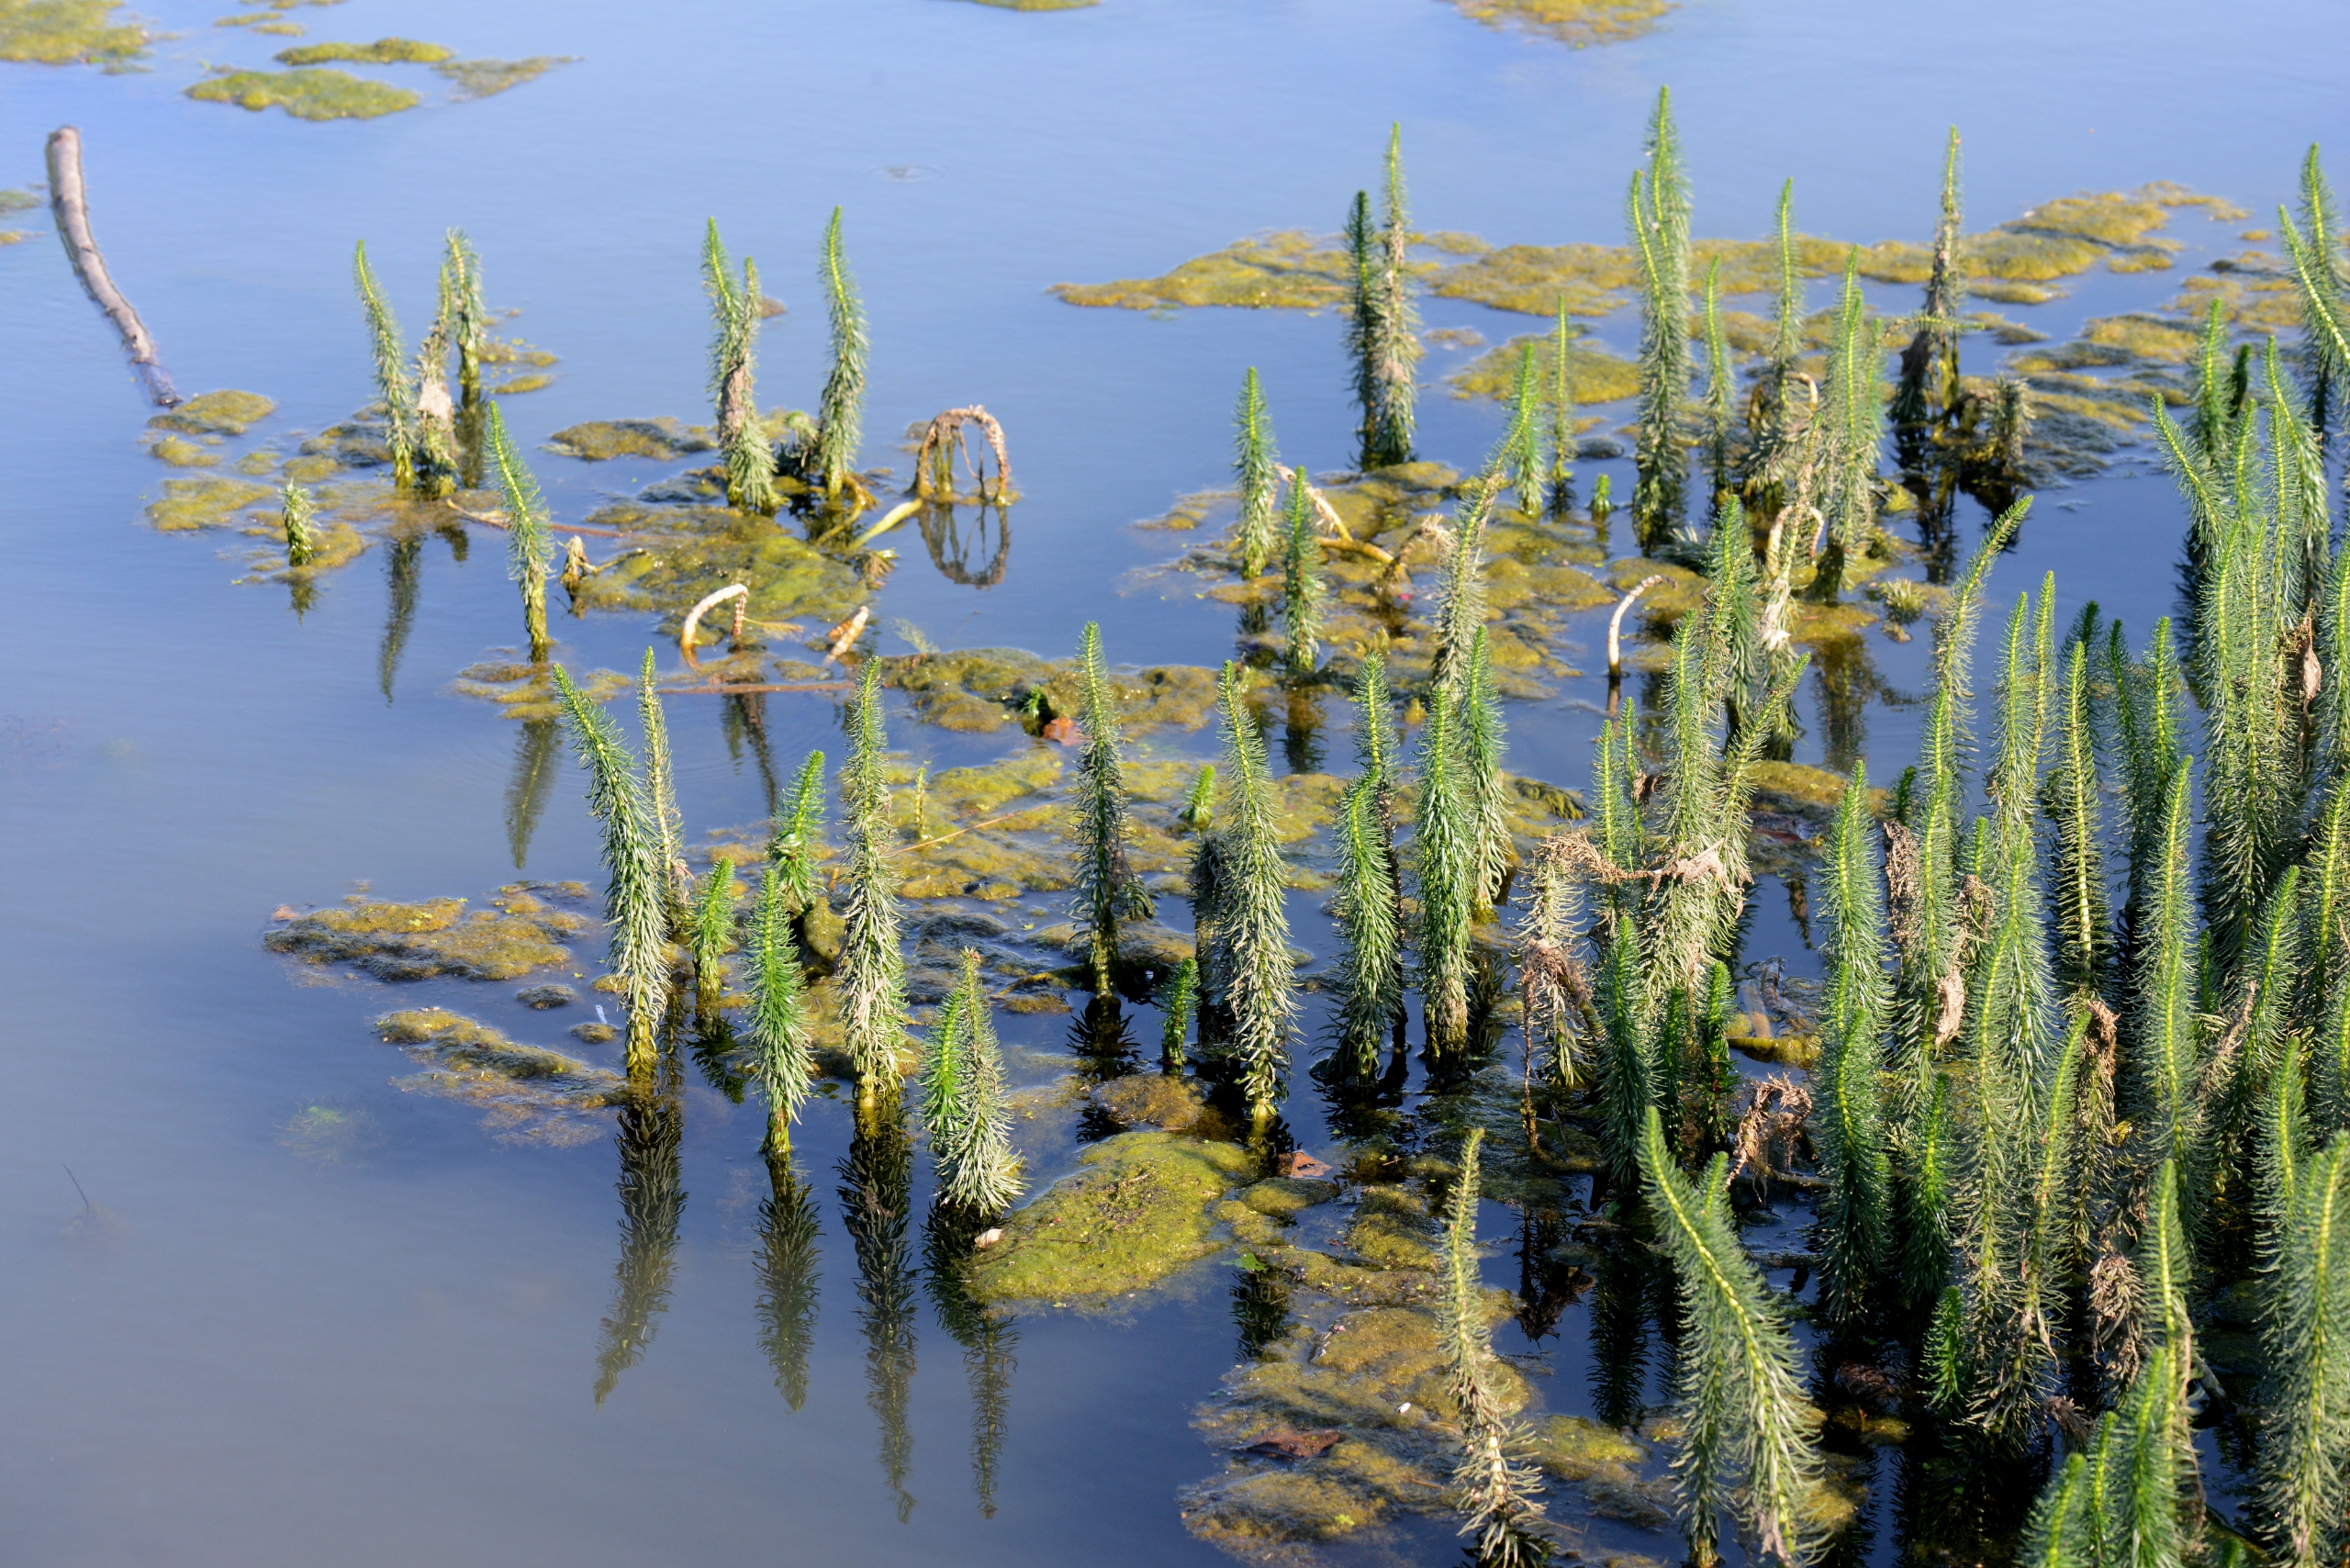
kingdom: Plantae
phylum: Tracheophyta
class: Magnoliopsida
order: Lamiales
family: Plantaginaceae
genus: Hippuris
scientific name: Hippuris vulgaris
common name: Vandspir
